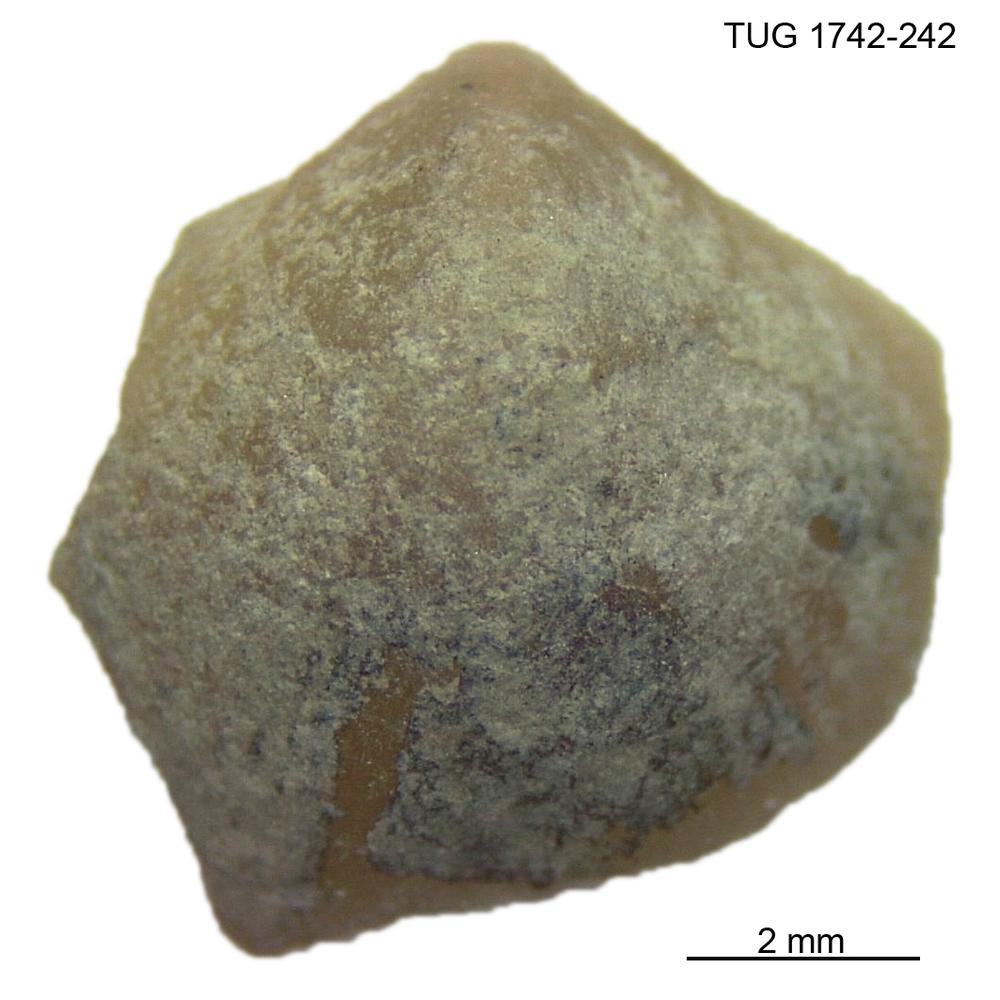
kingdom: Animalia
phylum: Brachiopoda
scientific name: Brachiopoda
